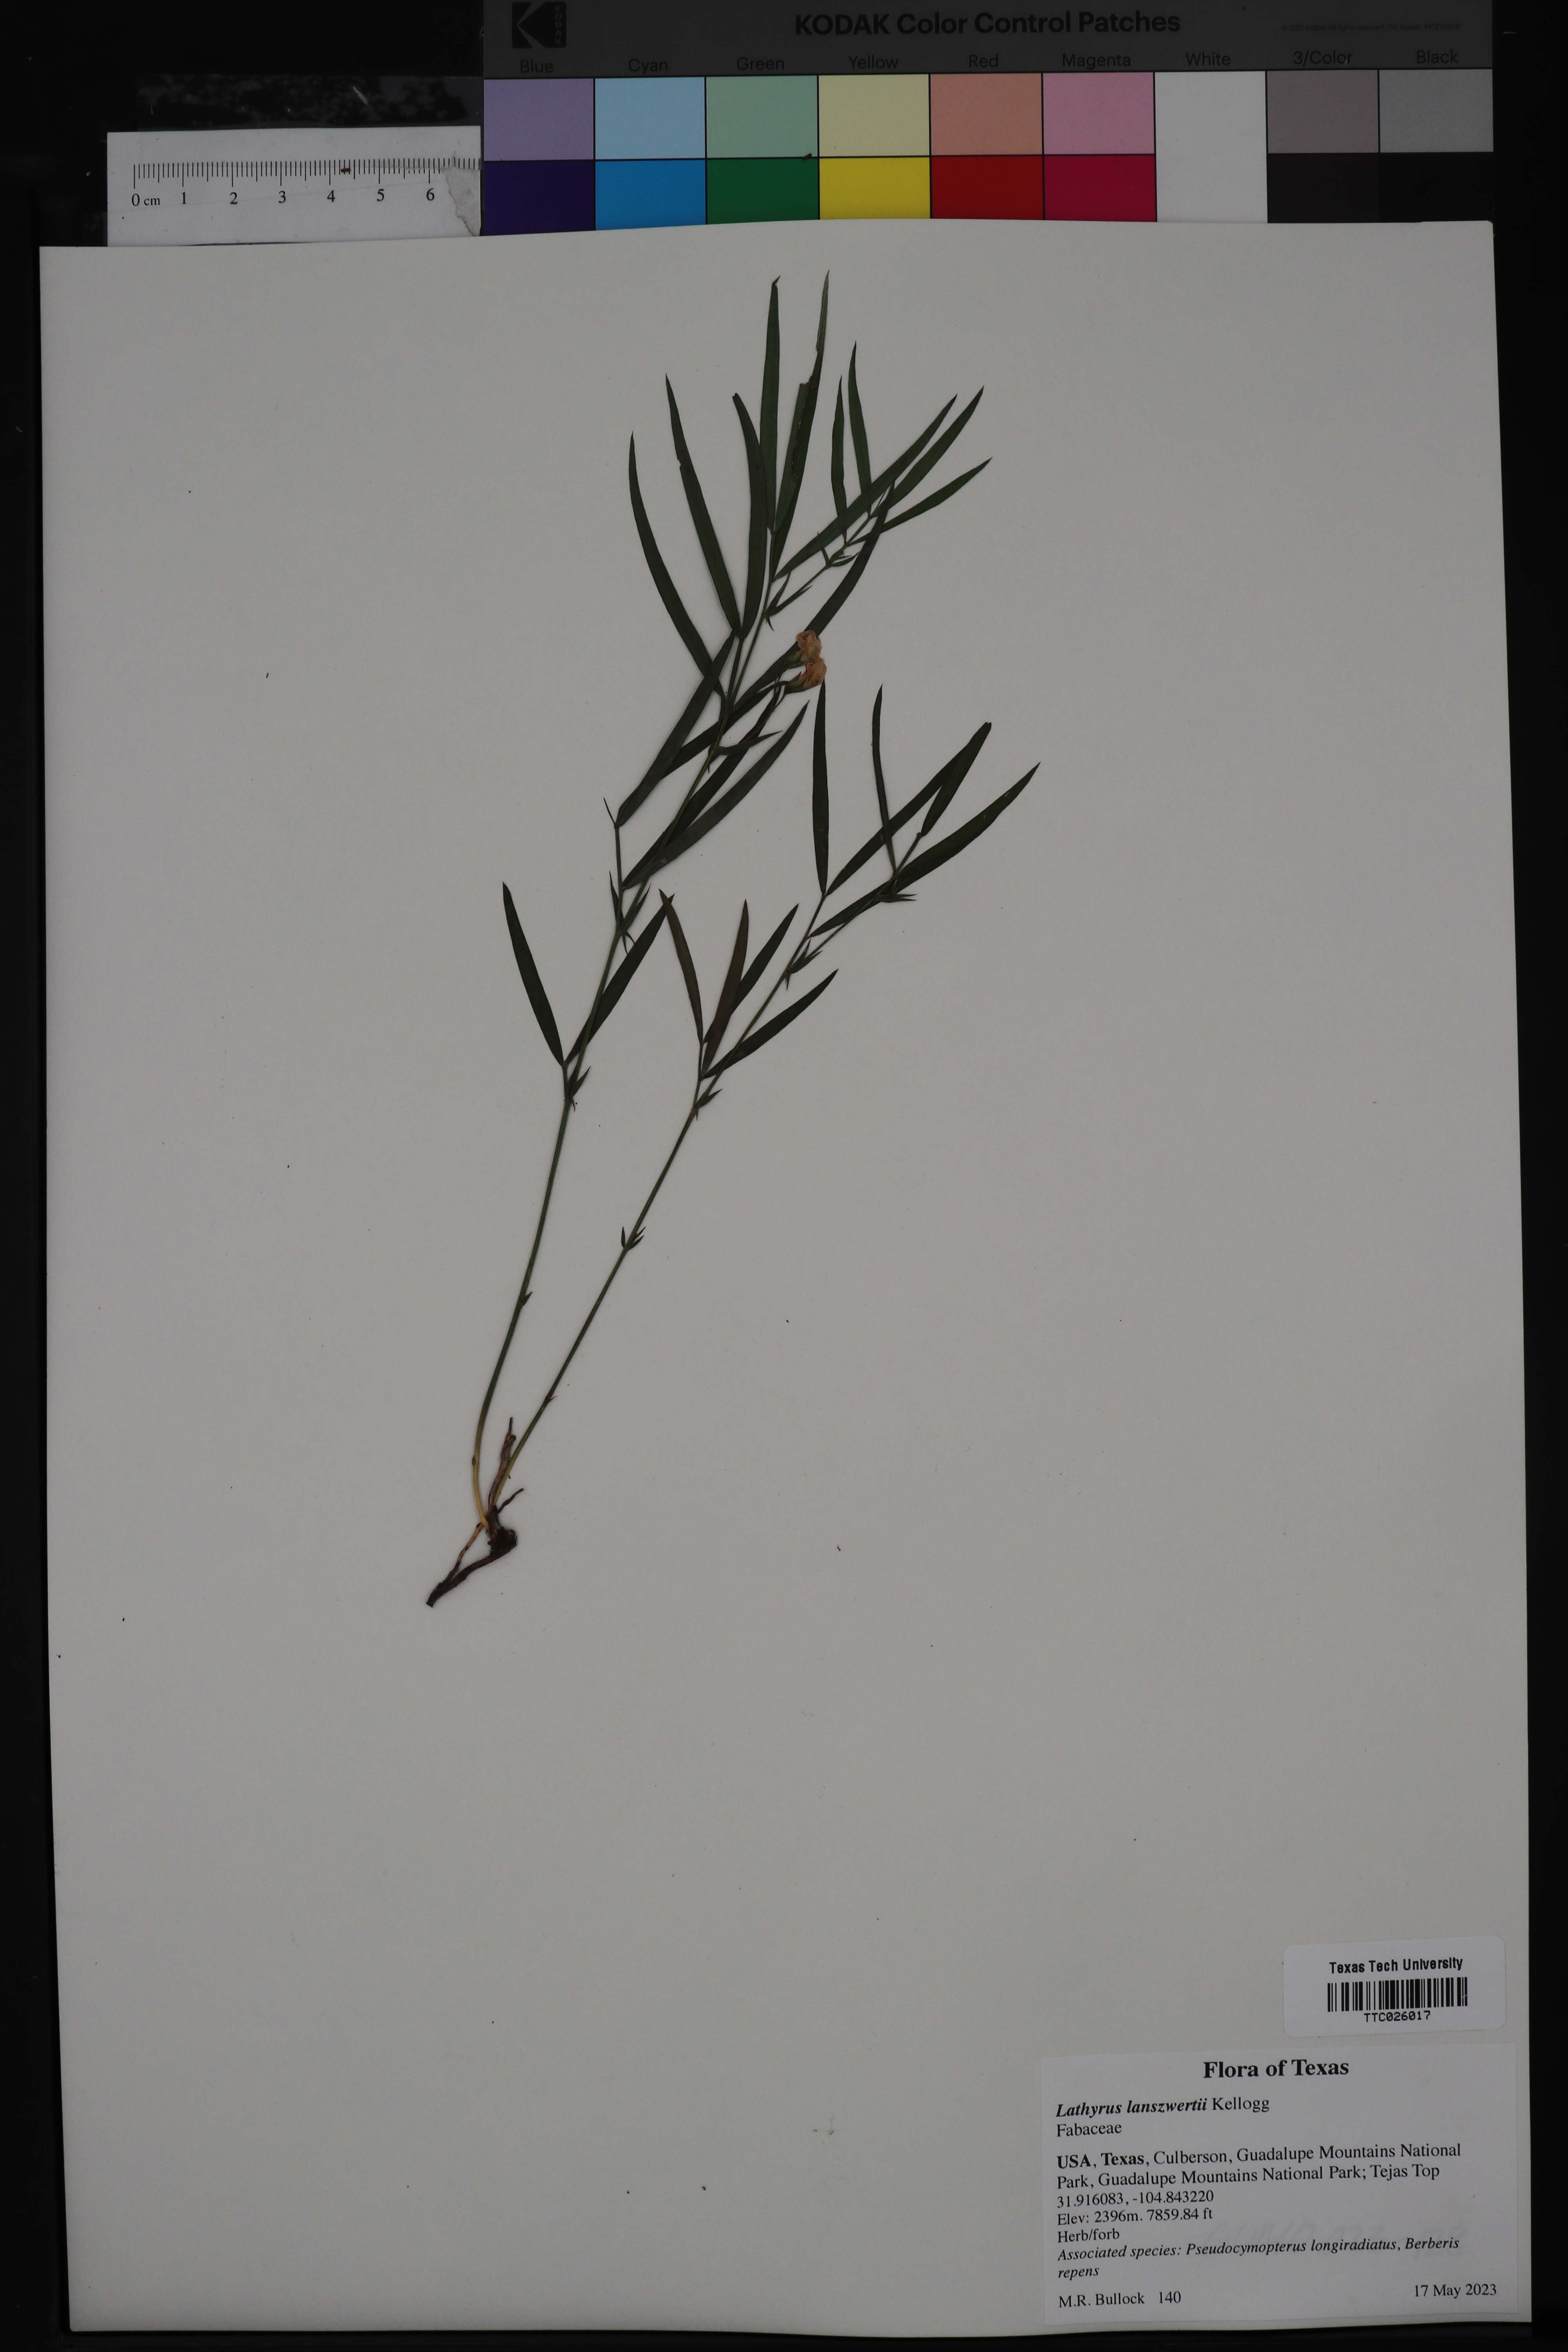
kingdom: Plantae
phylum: Tracheophyta
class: Magnoliopsida
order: Fabales
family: Fabaceae
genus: Lathyrus
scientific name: Lathyrus lanszwertii
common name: Lanszwert's vetchling
